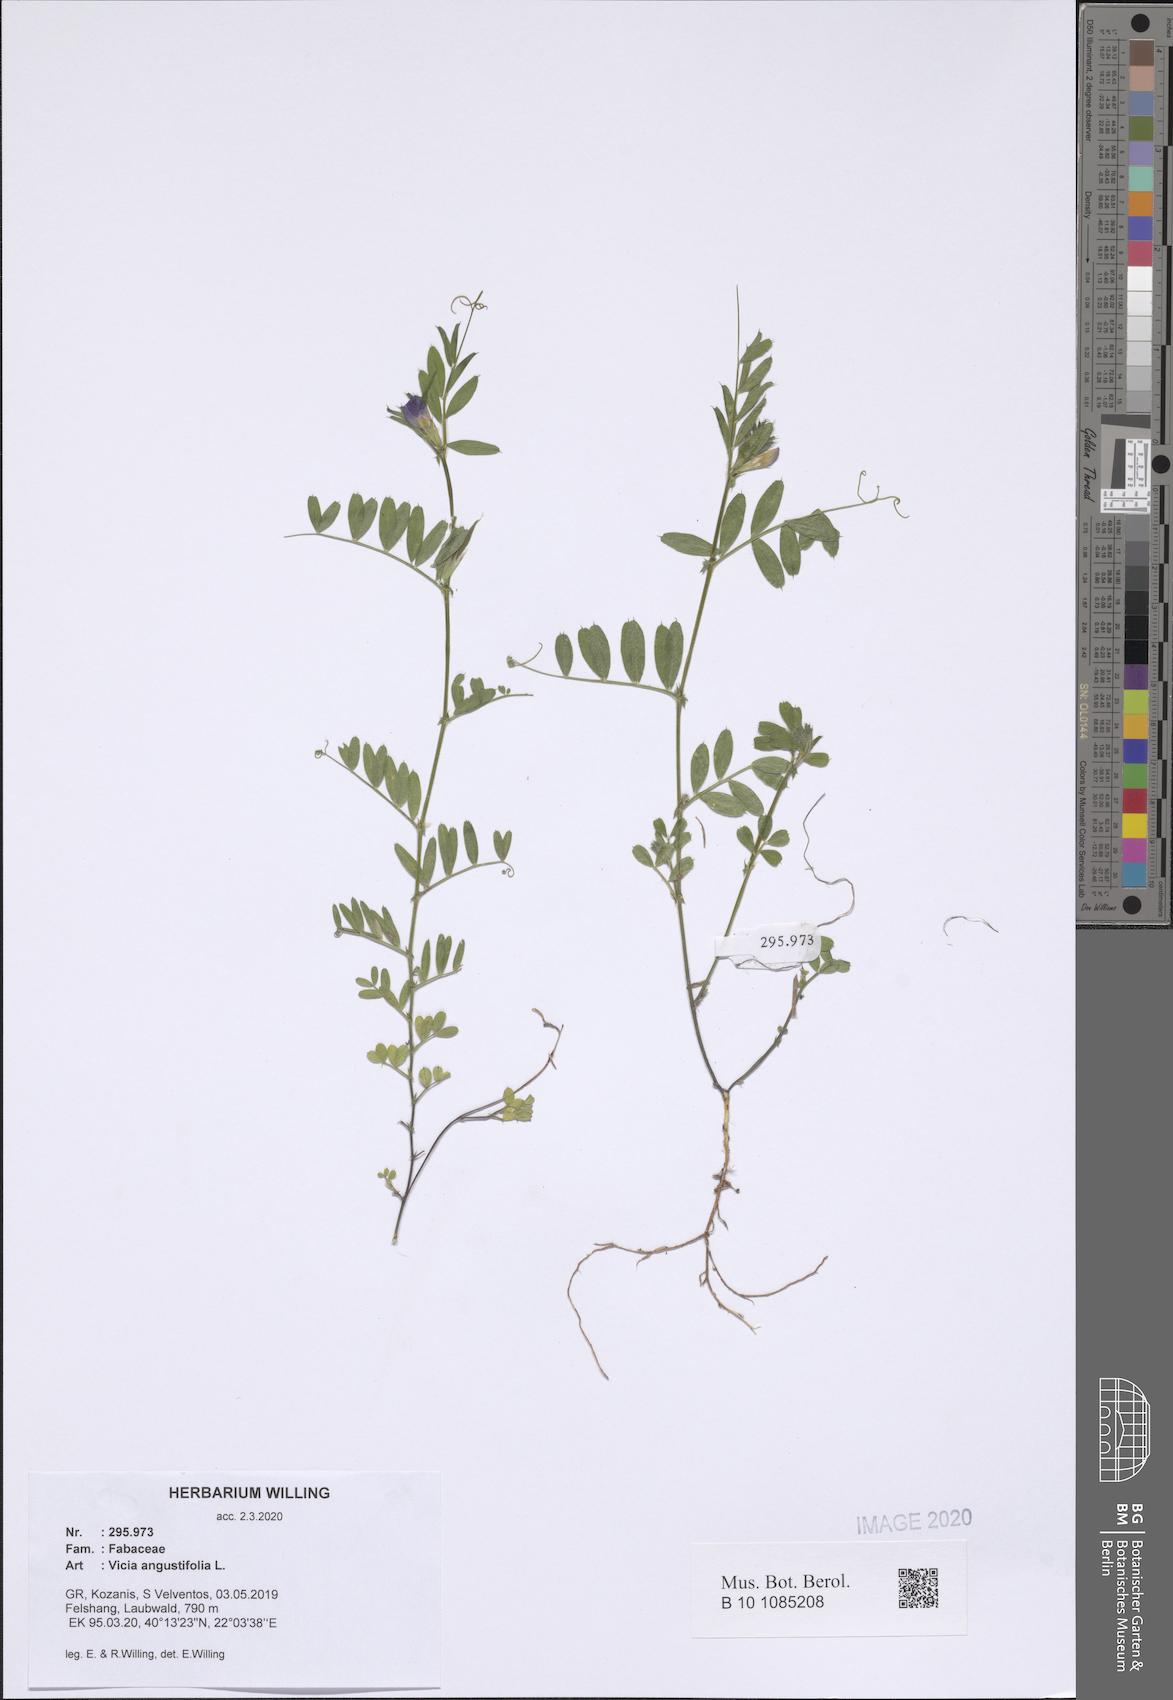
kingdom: Plantae
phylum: Tracheophyta
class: Magnoliopsida
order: Fabales
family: Fabaceae
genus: Vicia
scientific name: Vicia sativa
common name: Garden vetch
